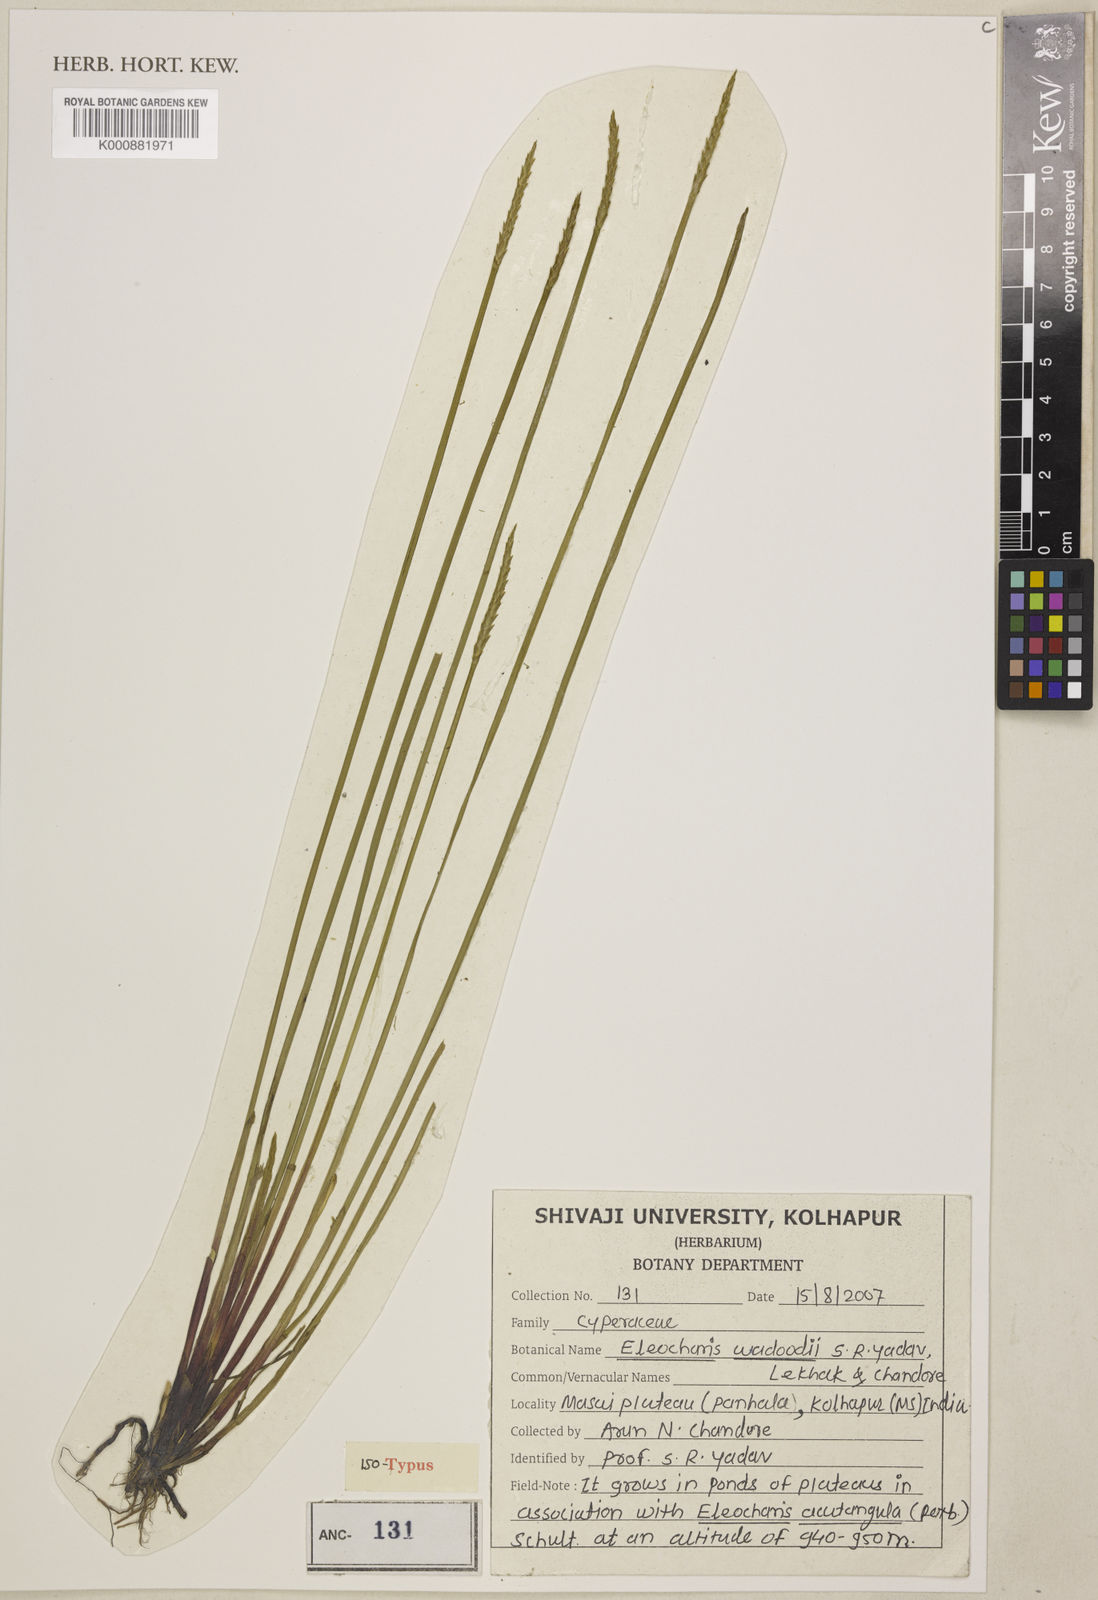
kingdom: Plantae
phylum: Tracheophyta
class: Liliopsida
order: Poales
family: Cyperaceae
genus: Eleocharis
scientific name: Eleocharis wadoodii
